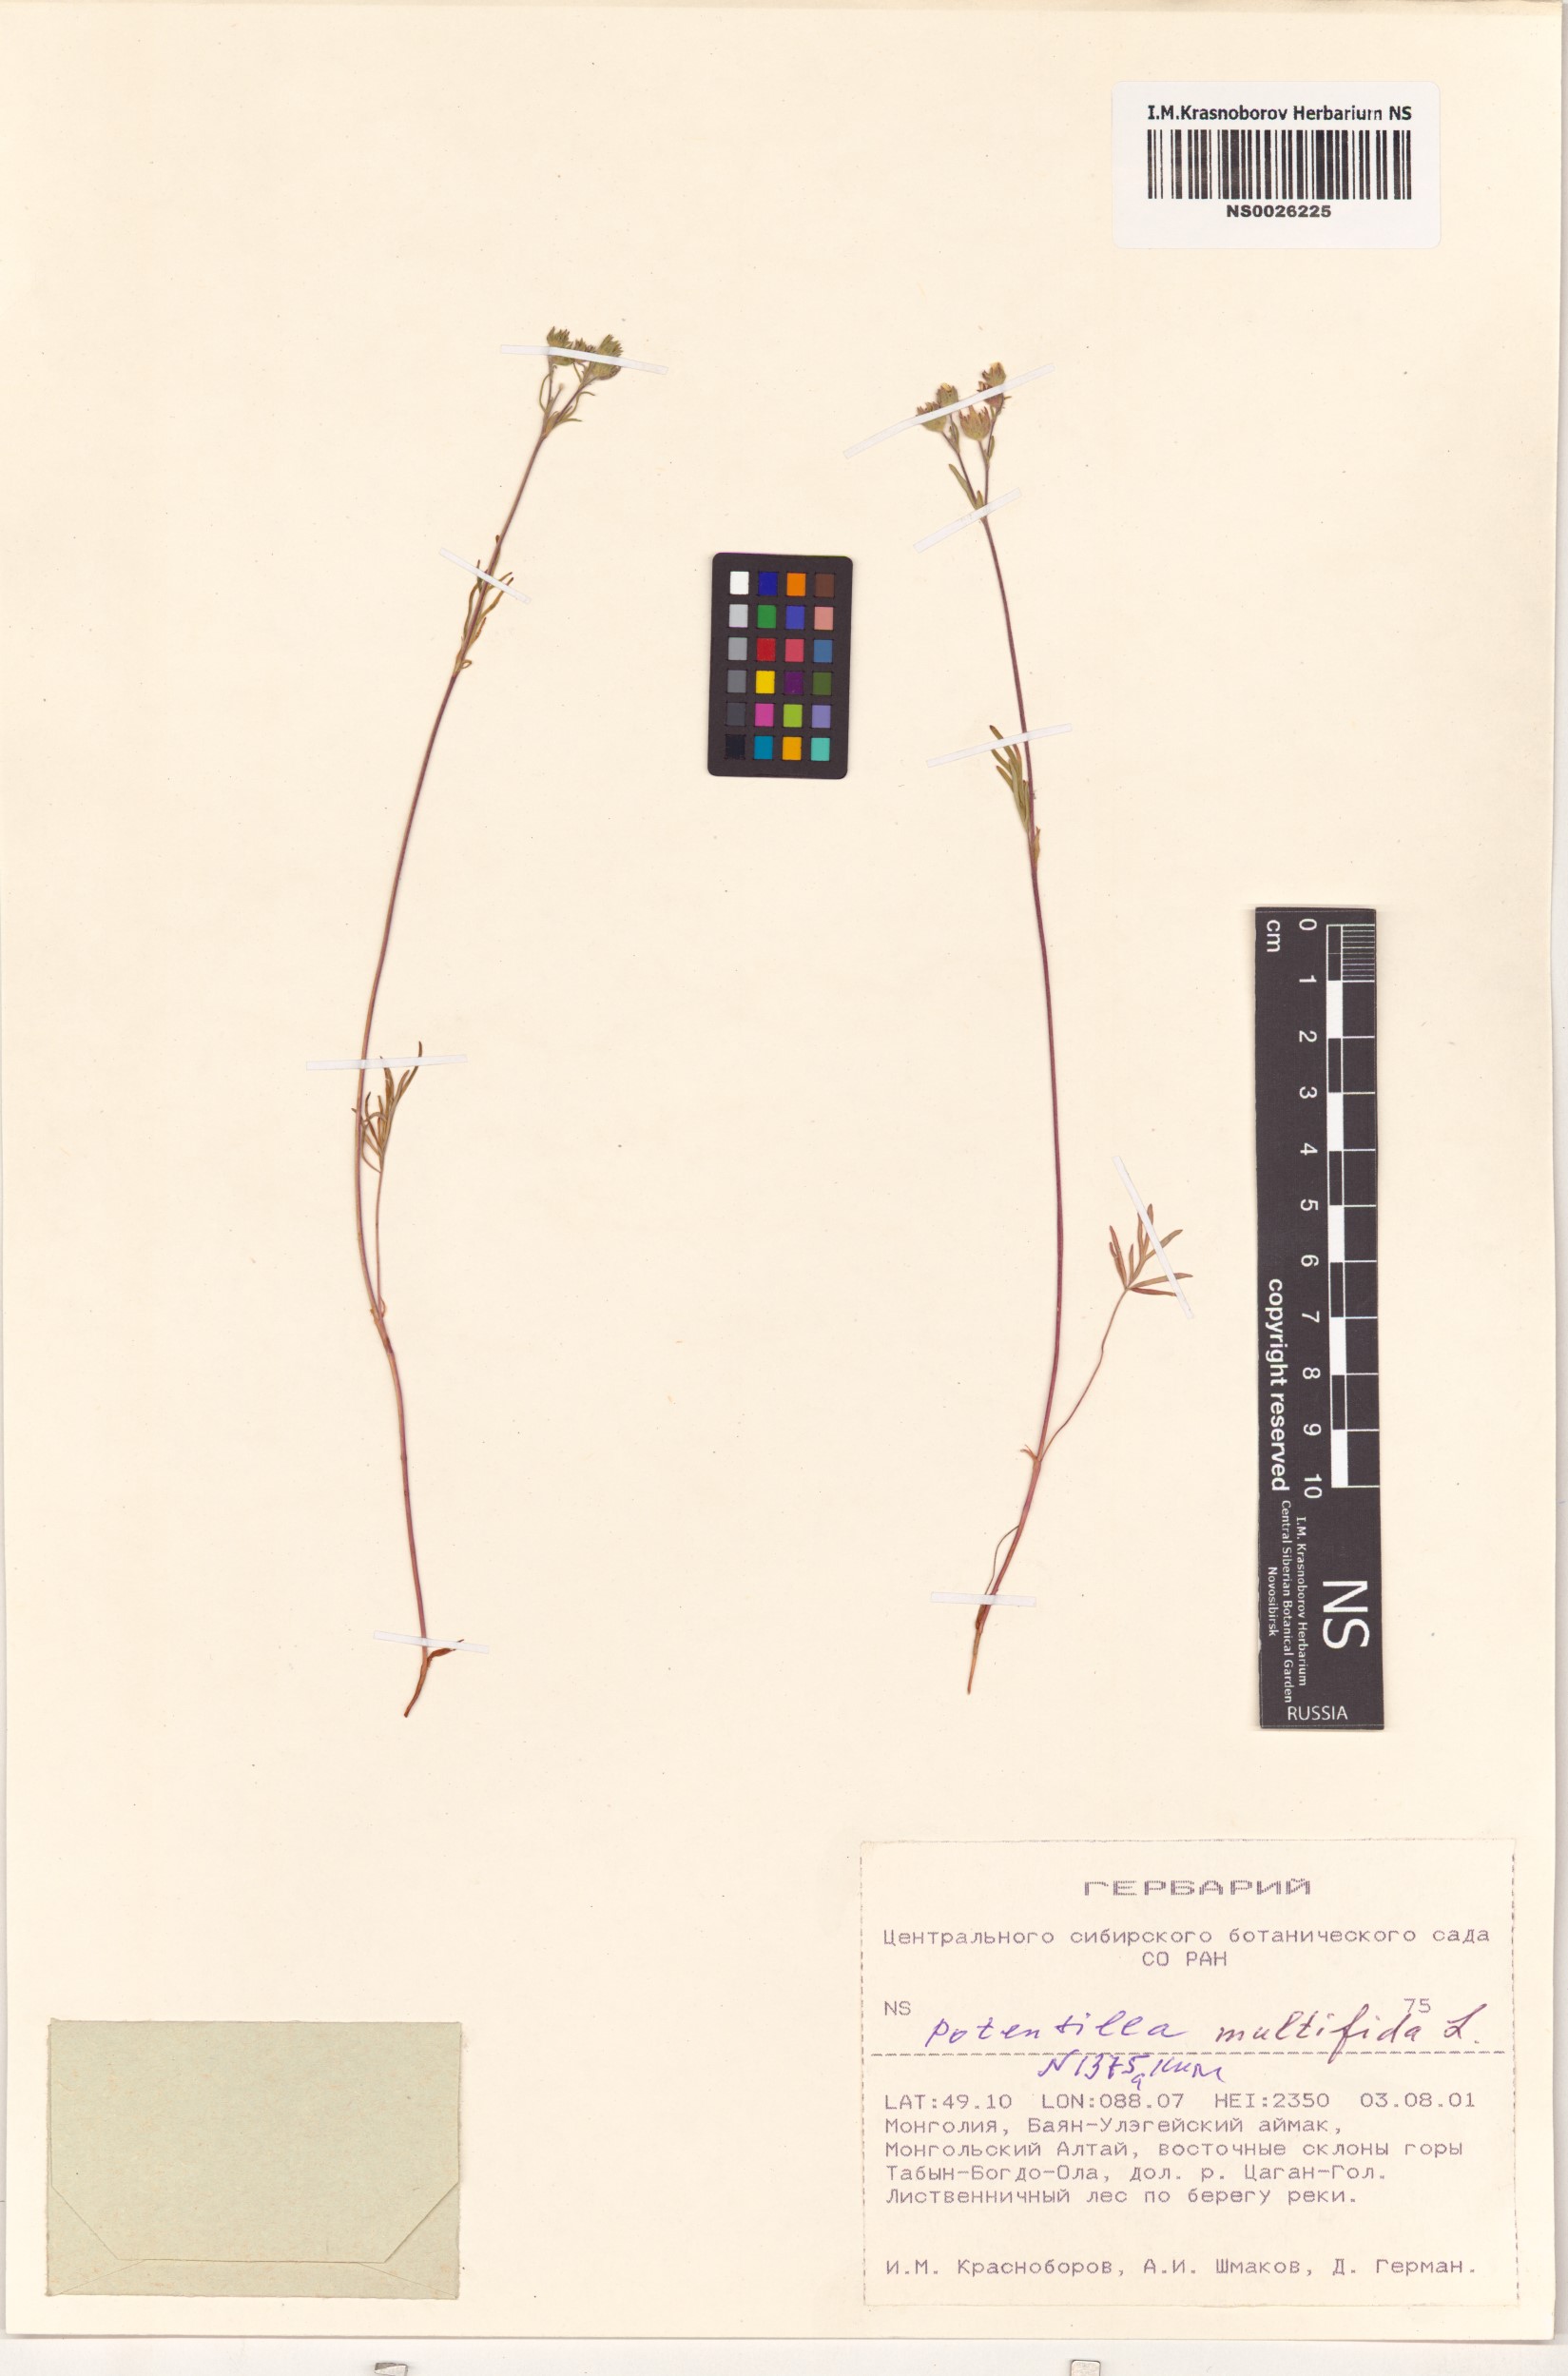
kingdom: Plantae
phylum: Tracheophyta
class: Magnoliopsida
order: Rosales
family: Rosaceae
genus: Potentilla
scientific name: Potentilla multifida
